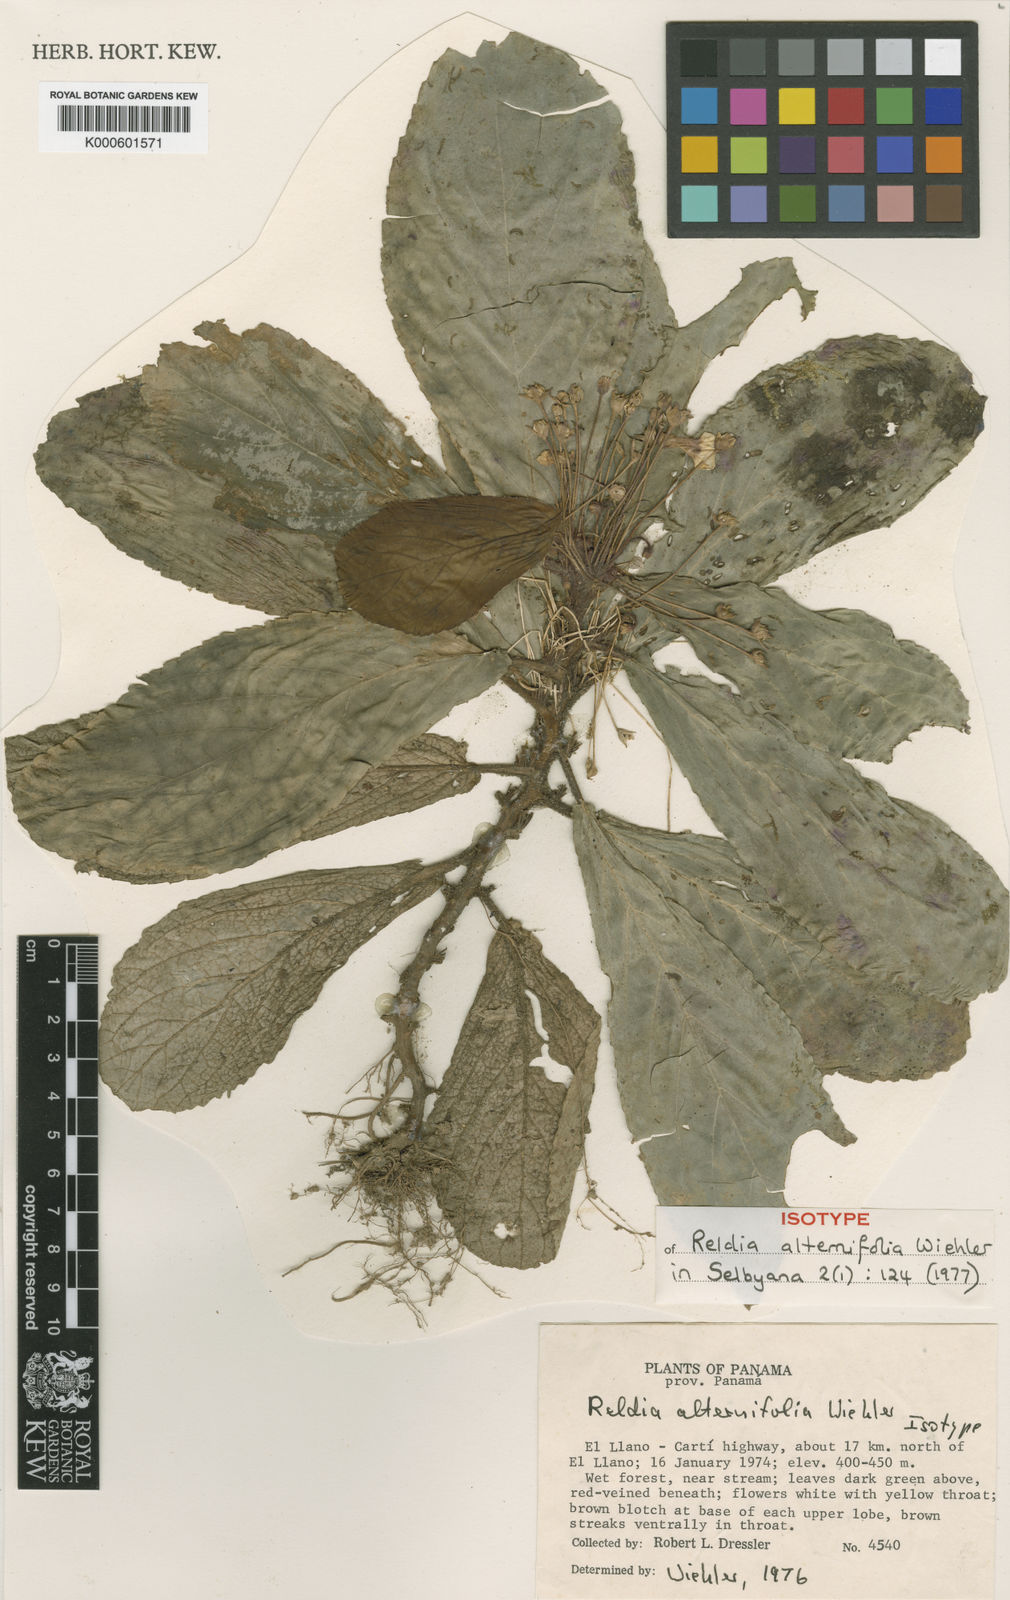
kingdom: Plantae
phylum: Tracheophyta
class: Magnoliopsida
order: Lamiales
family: Gesneriaceae
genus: Reldia
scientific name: Reldia alternifolia
